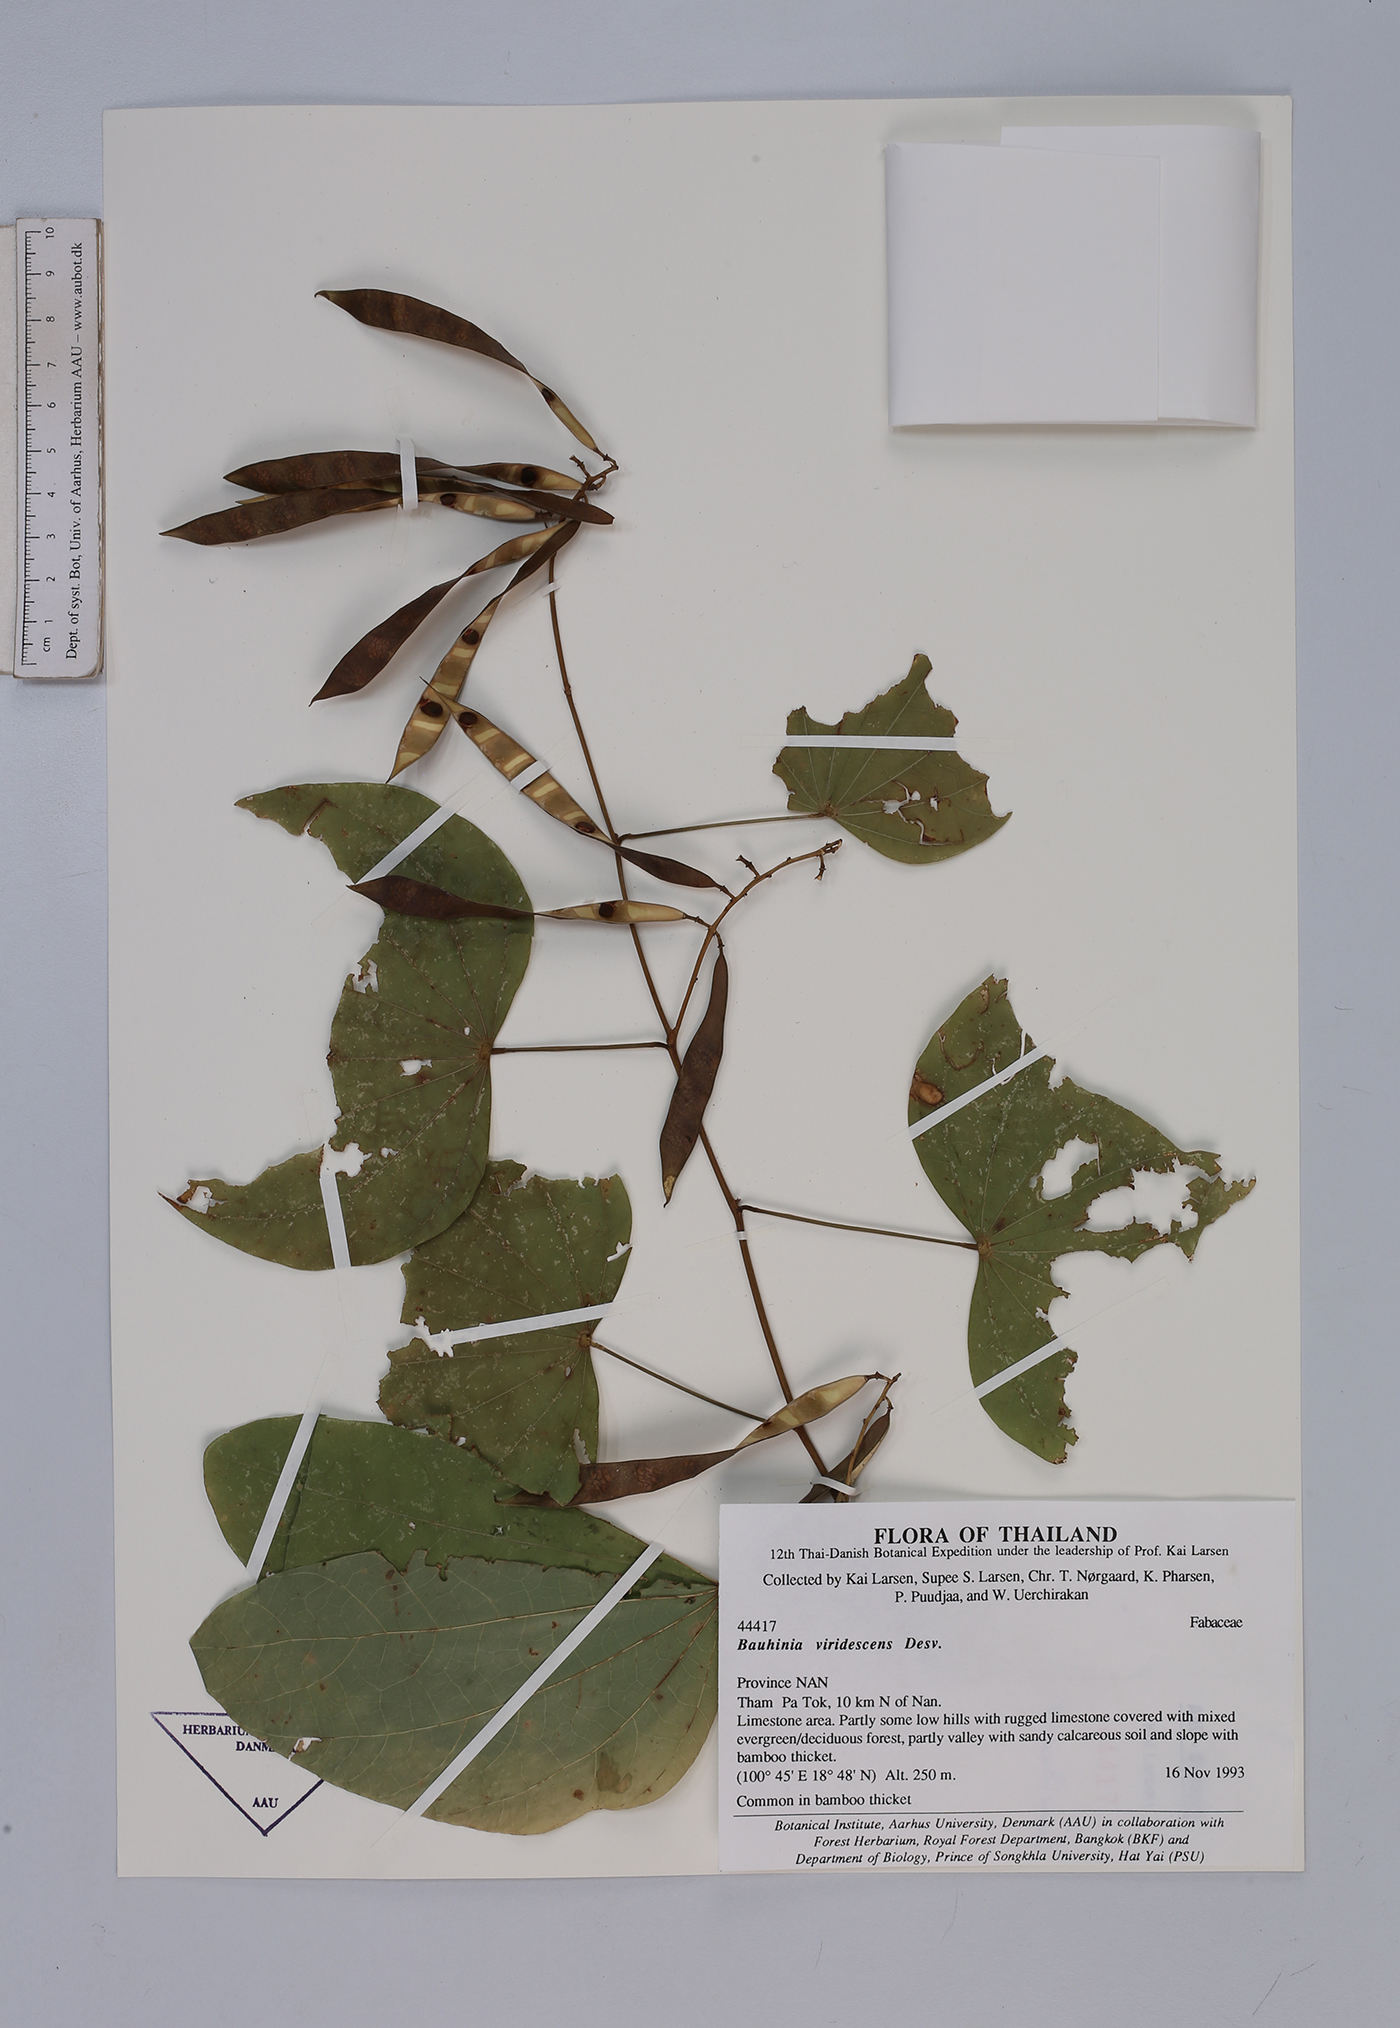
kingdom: Plantae
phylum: Tracheophyta
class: Magnoliopsida
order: Fabales
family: Fabaceae
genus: Bauhinia
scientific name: Bauhinia viridescens
